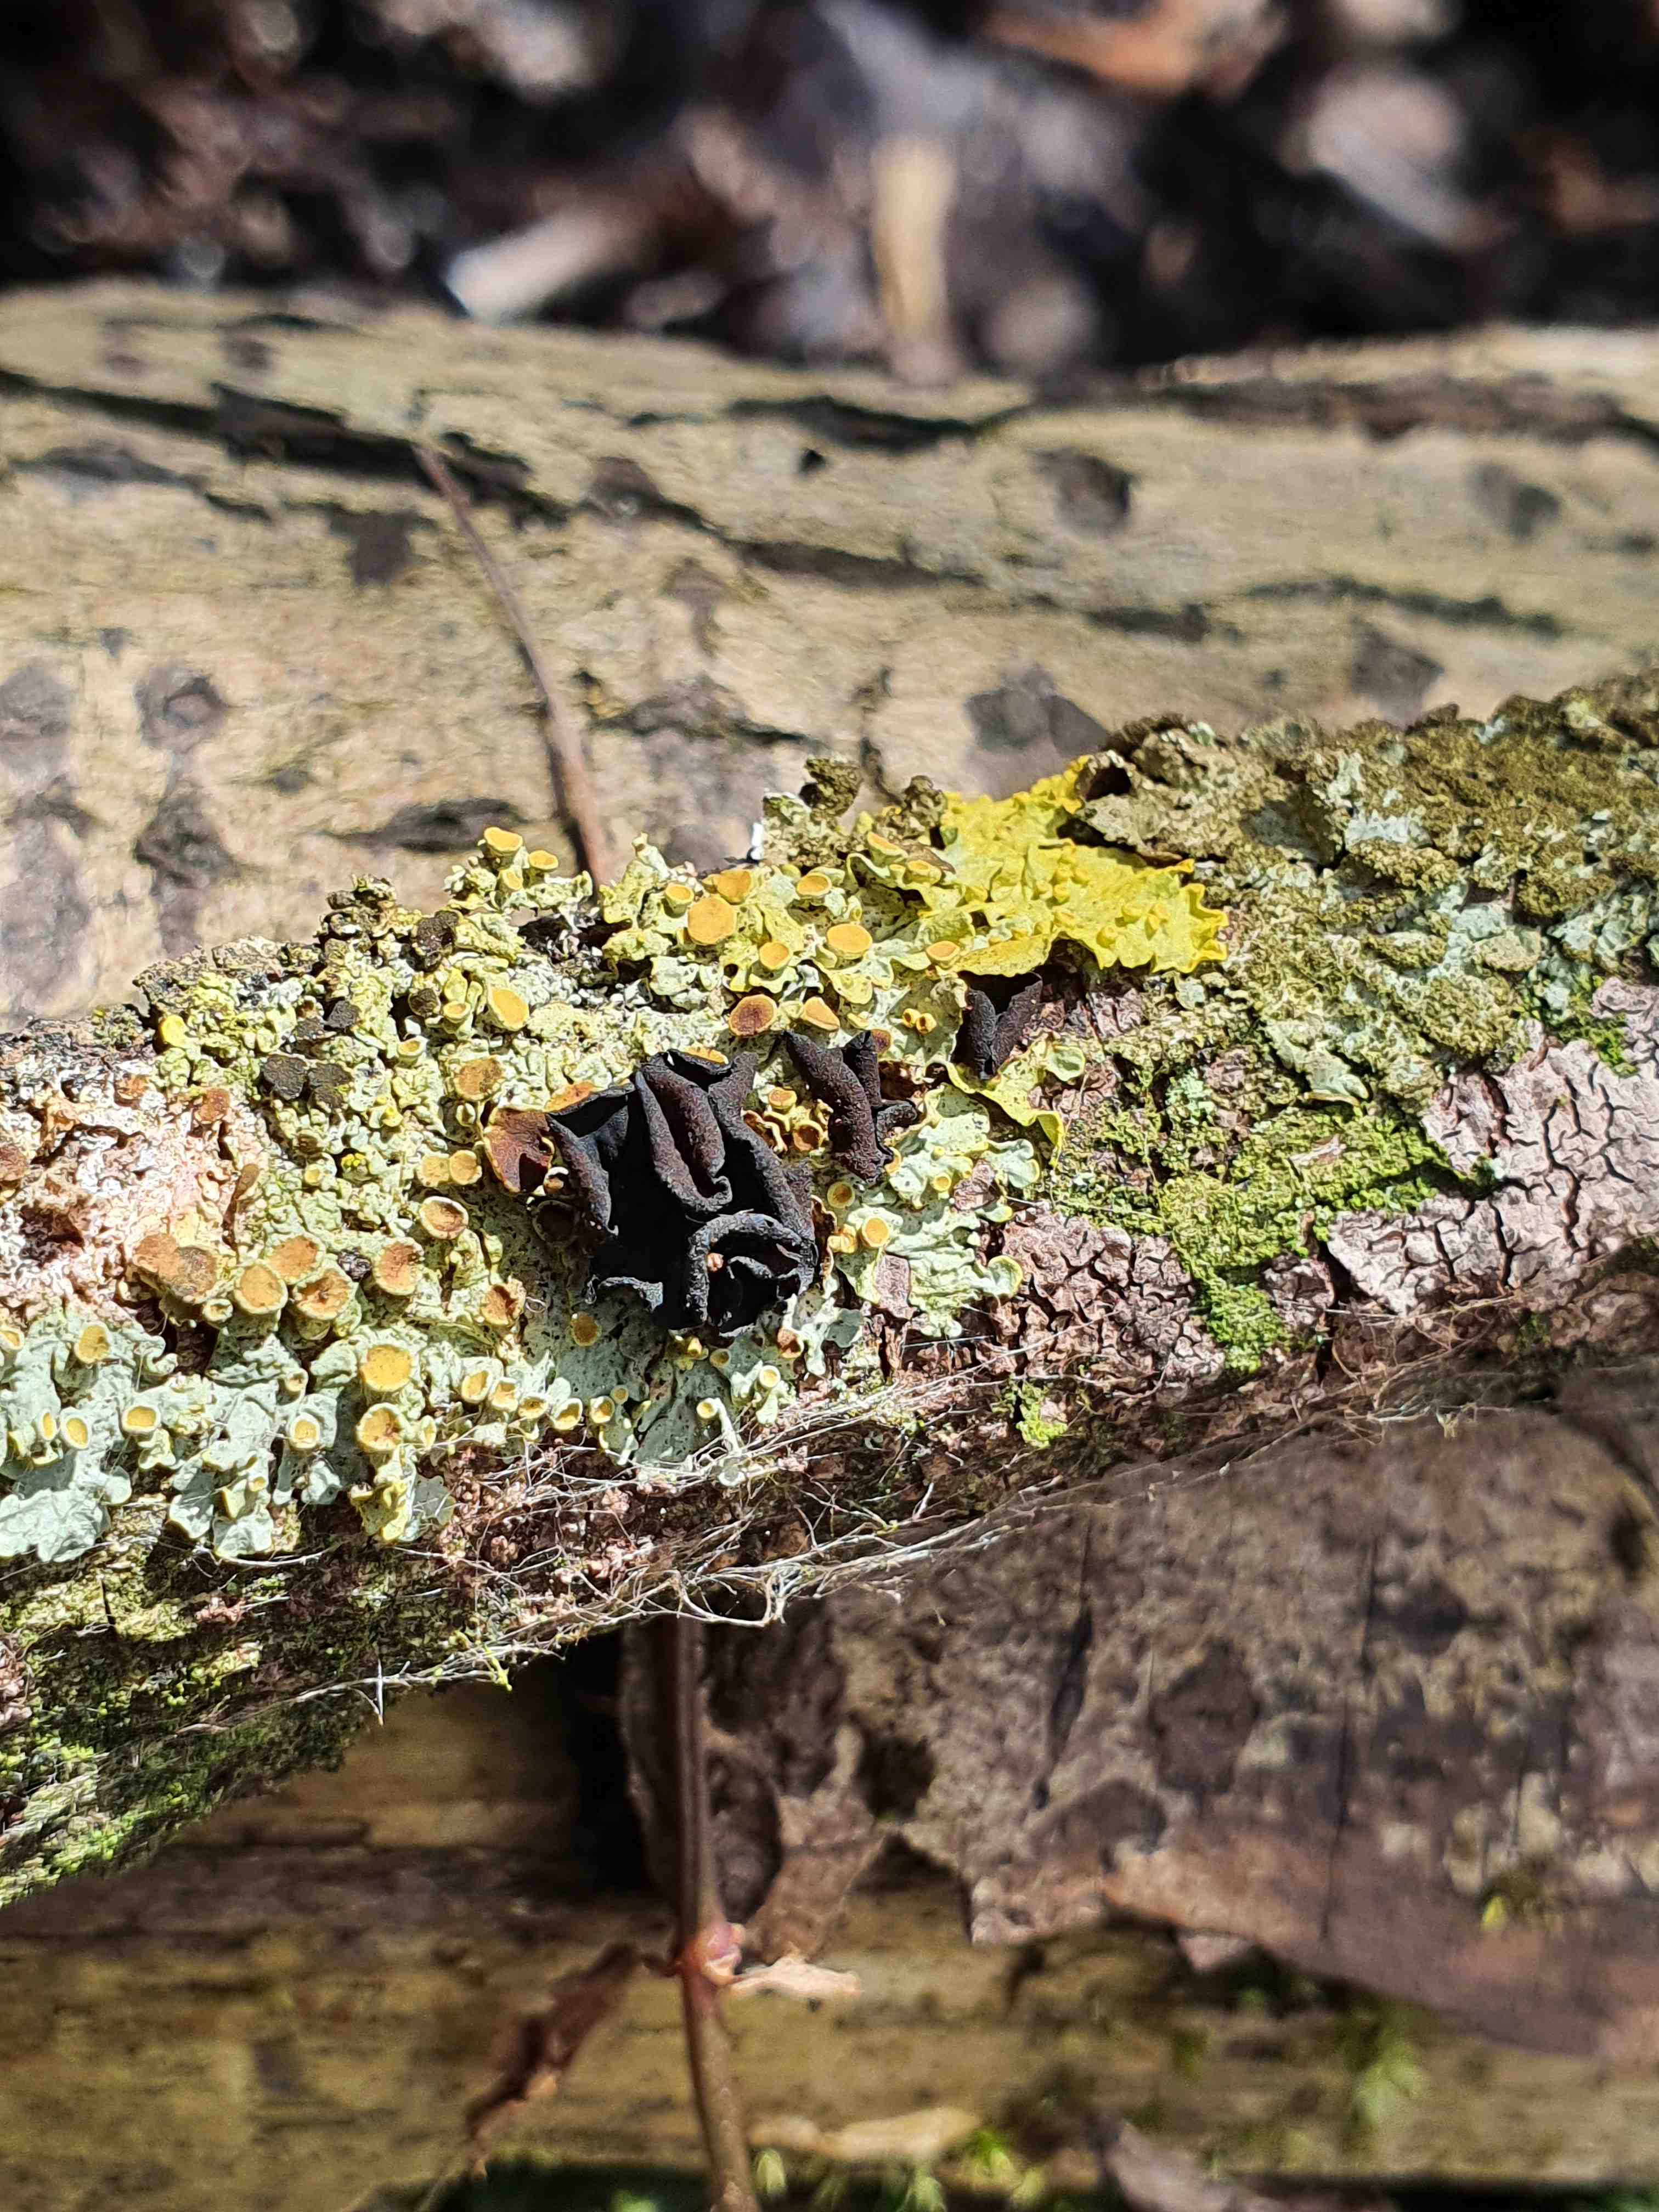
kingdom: Fungi
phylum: Ascomycota
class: Leotiomycetes
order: Helotiales
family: Cordieritidaceae
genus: Ionomidotis
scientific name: Ionomidotis fulvotingens
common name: rødmende tjæreskive
